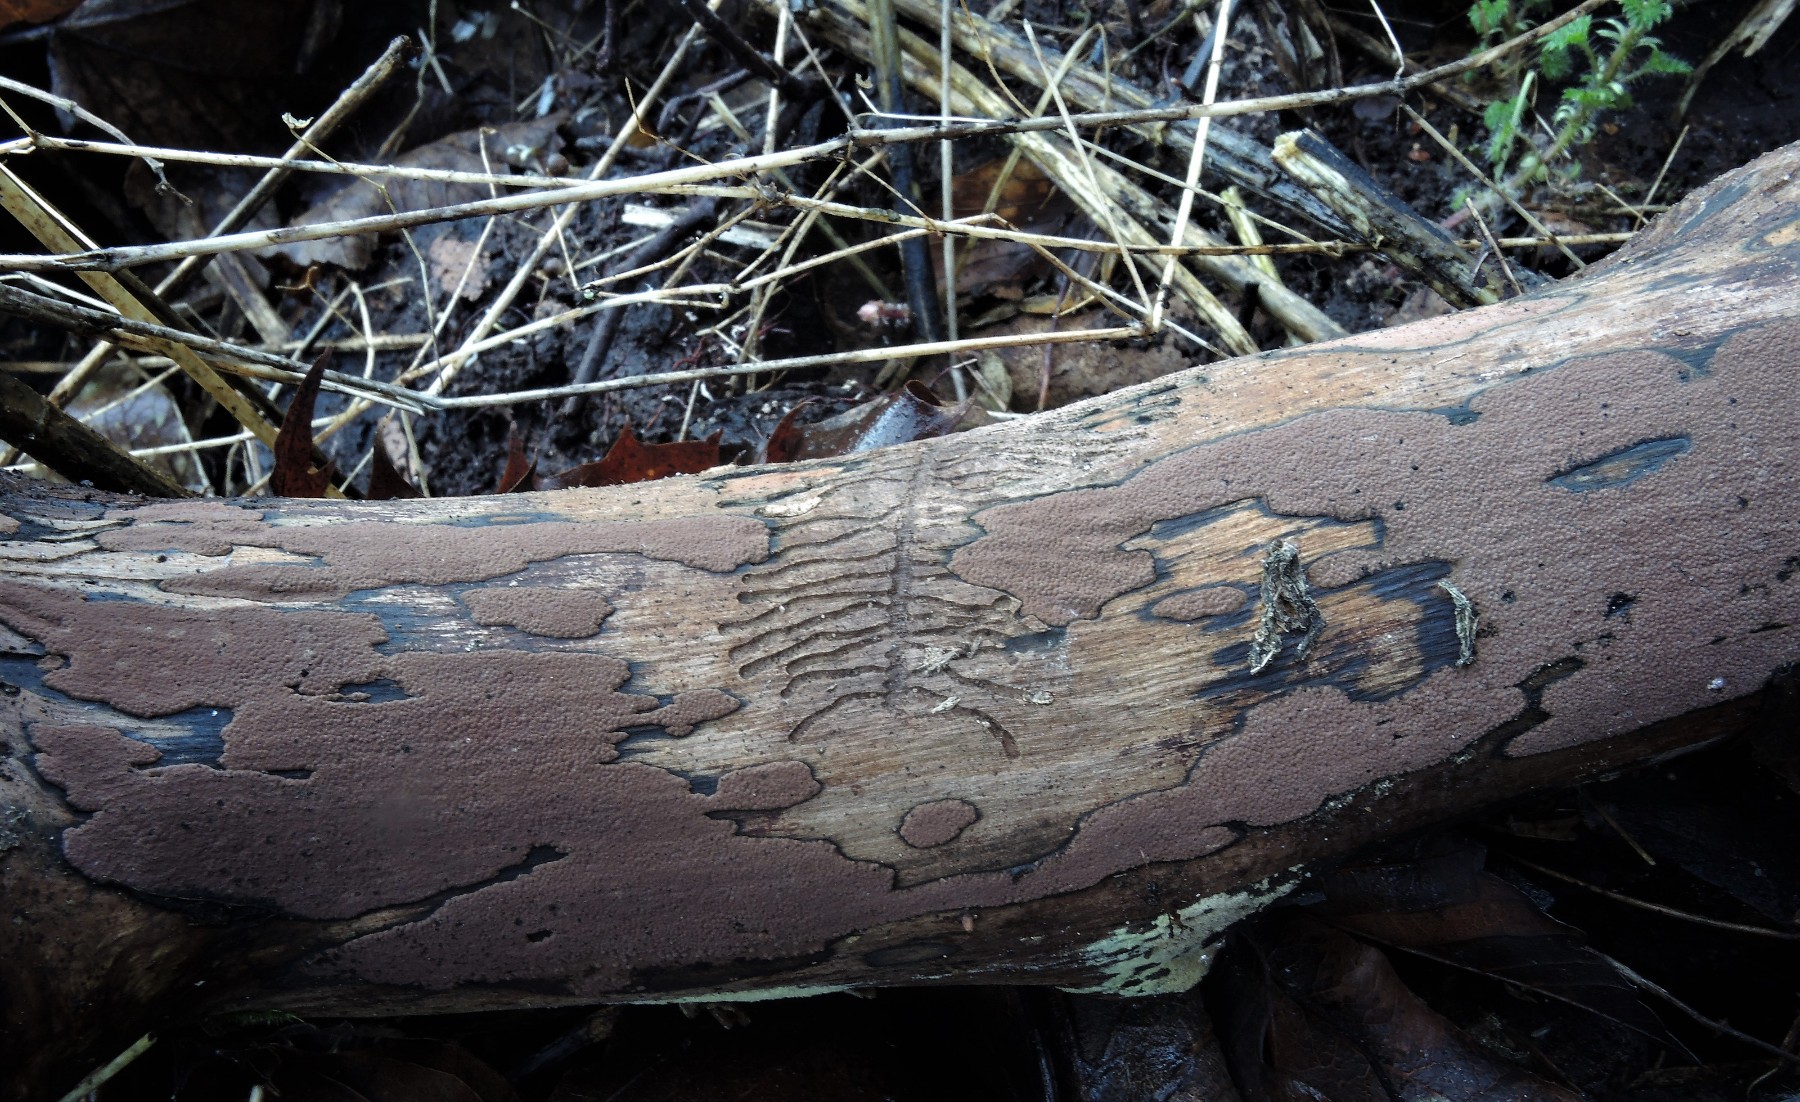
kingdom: Fungi
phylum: Ascomycota
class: Sordariomycetes
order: Xylariales
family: Hypoxylaceae
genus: Hypoxylon
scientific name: Hypoxylon petriniae
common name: nedsænket kulbær
